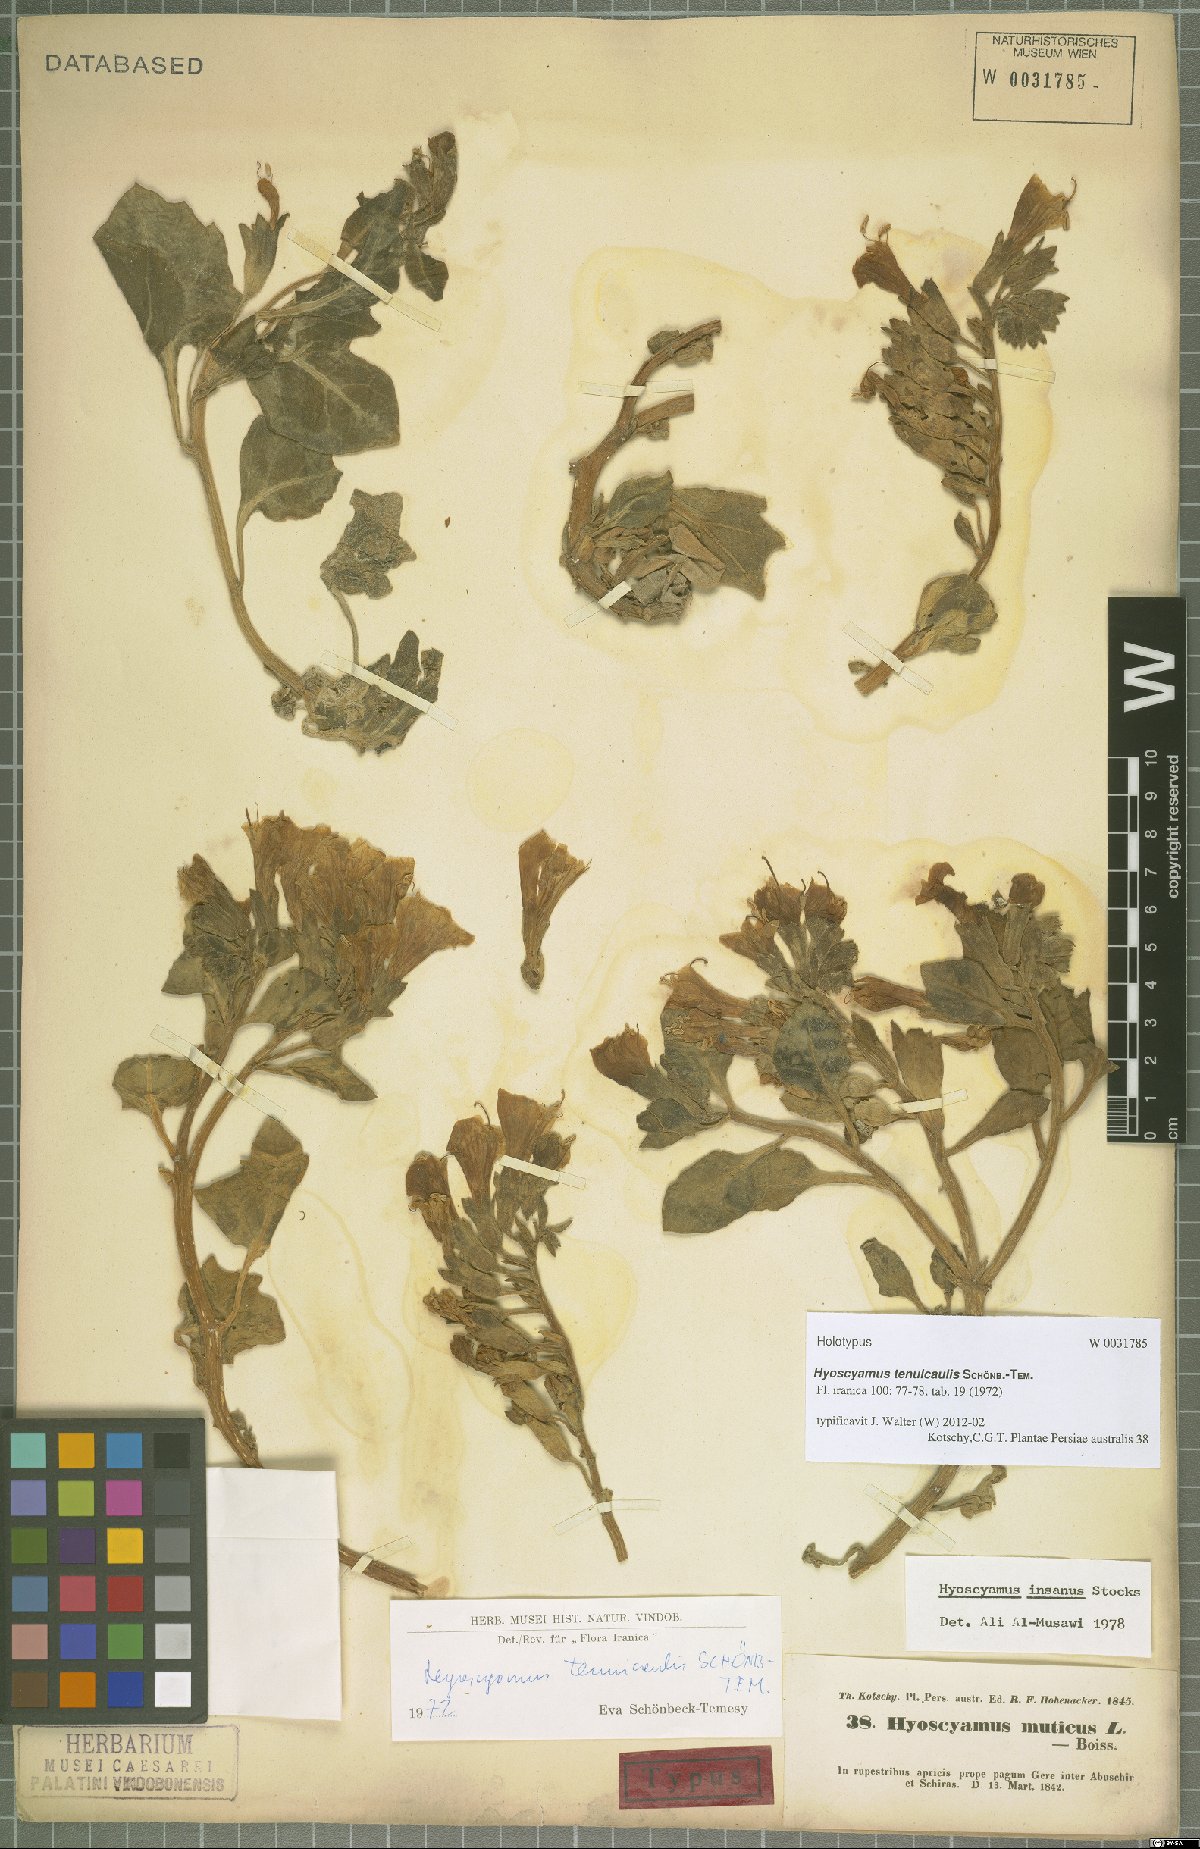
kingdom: Plantae
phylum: Tracheophyta
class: Magnoliopsida
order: Solanales
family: Solanaceae
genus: Hyoscyamus
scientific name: Hyoscyamus tenuicaulis
